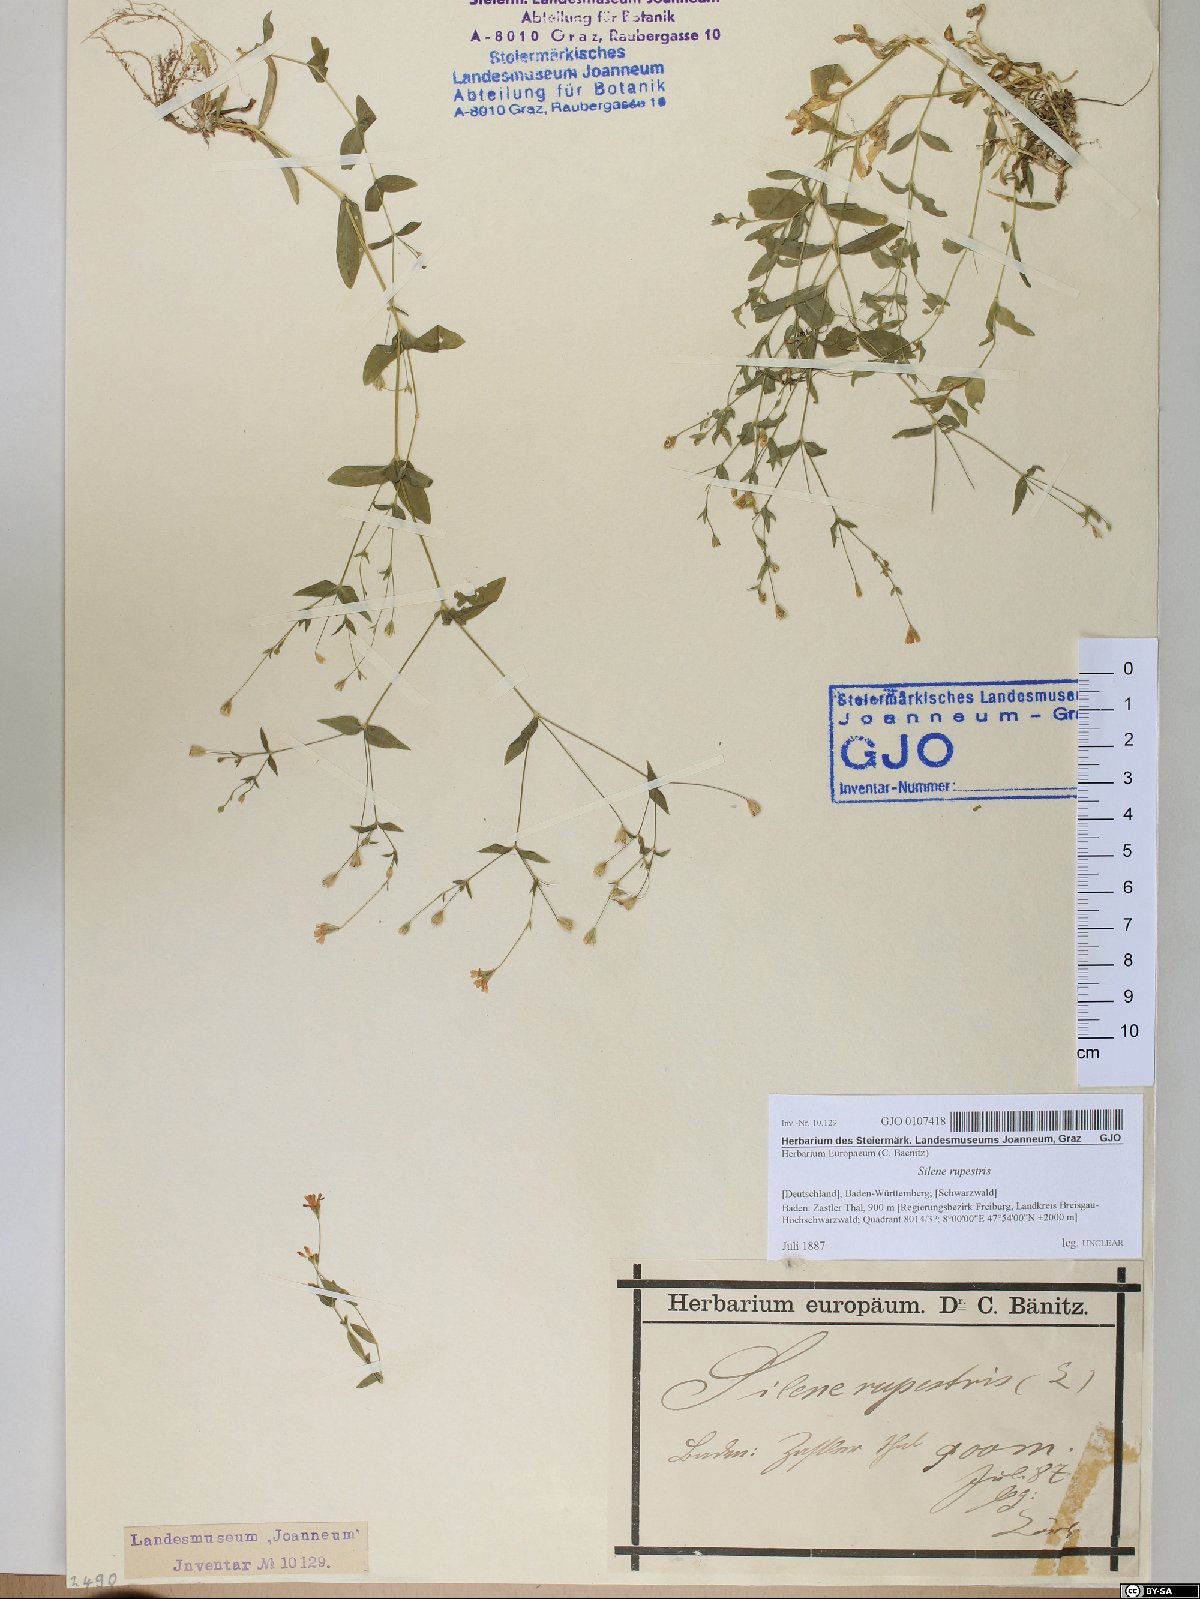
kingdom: Plantae
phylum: Tracheophyta
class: Magnoliopsida
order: Caryophyllales
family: Caryophyllaceae
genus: Atocion
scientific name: Atocion rupestre
